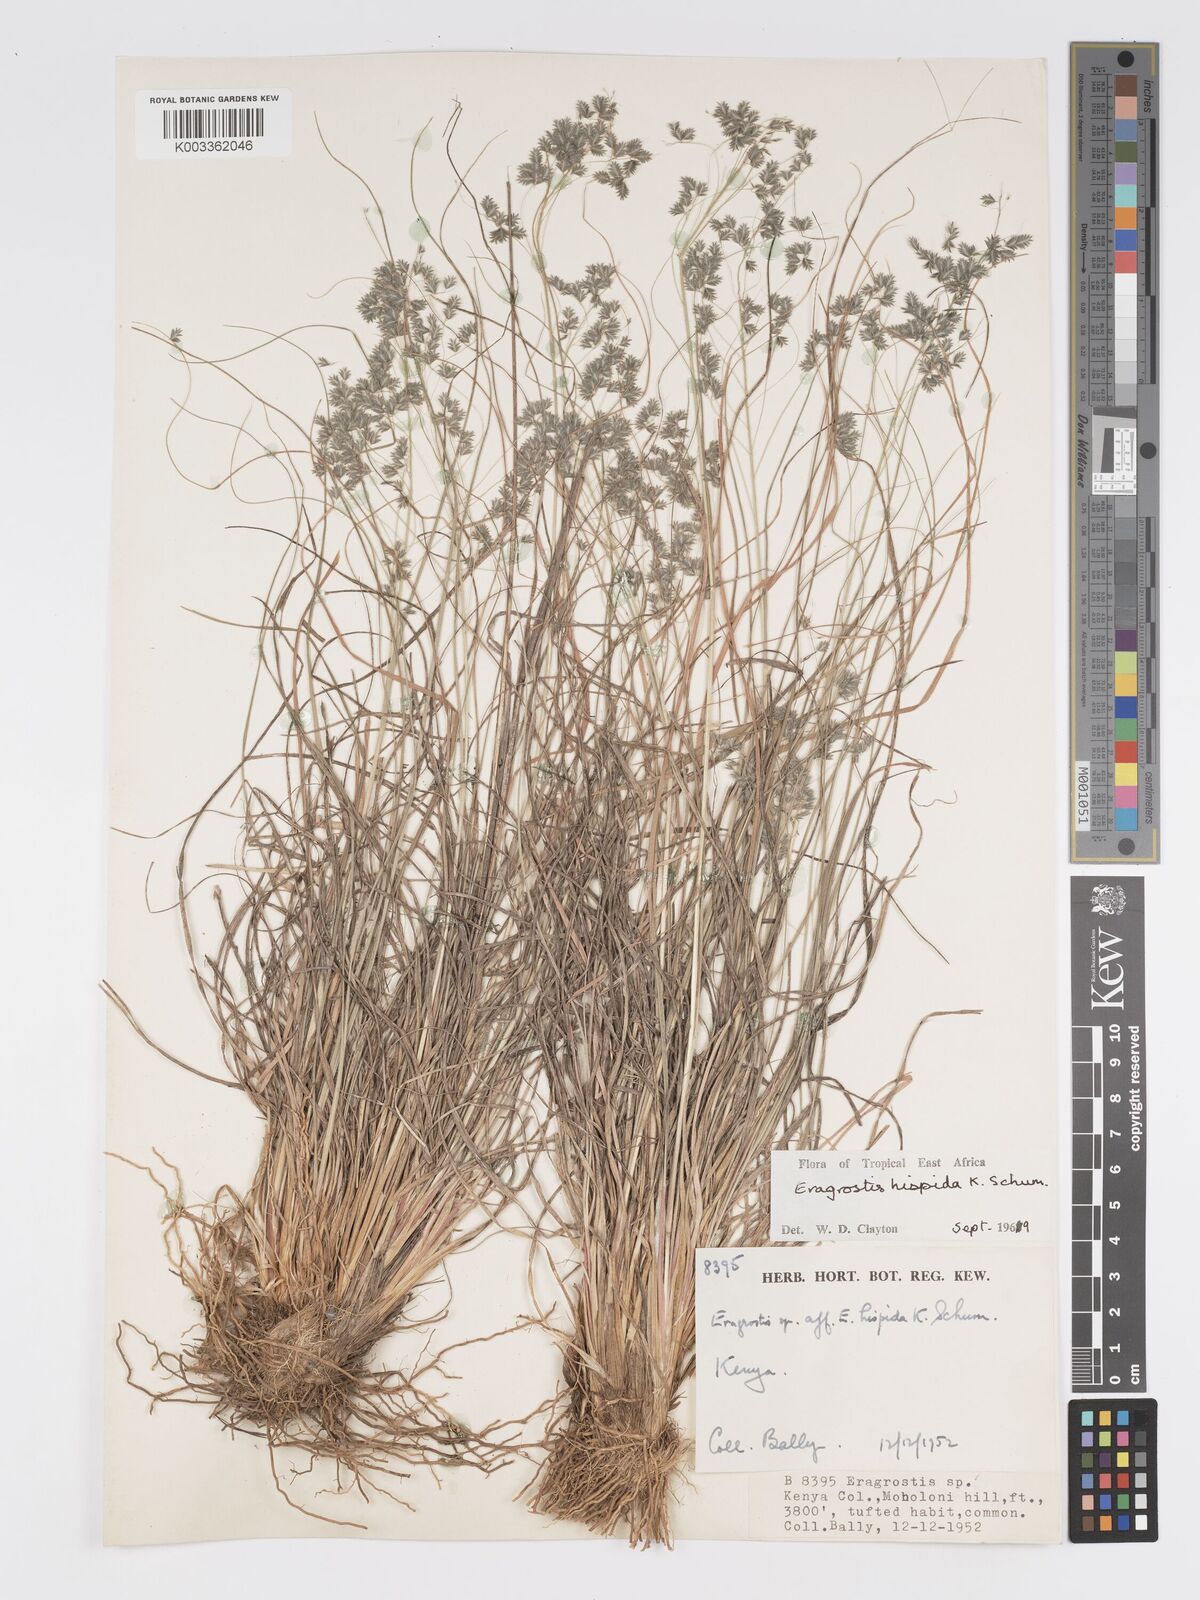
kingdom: Plantae
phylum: Tracheophyta
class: Liliopsida
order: Poales
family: Poaceae
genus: Eragrostis
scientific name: Eragrostis hispida
